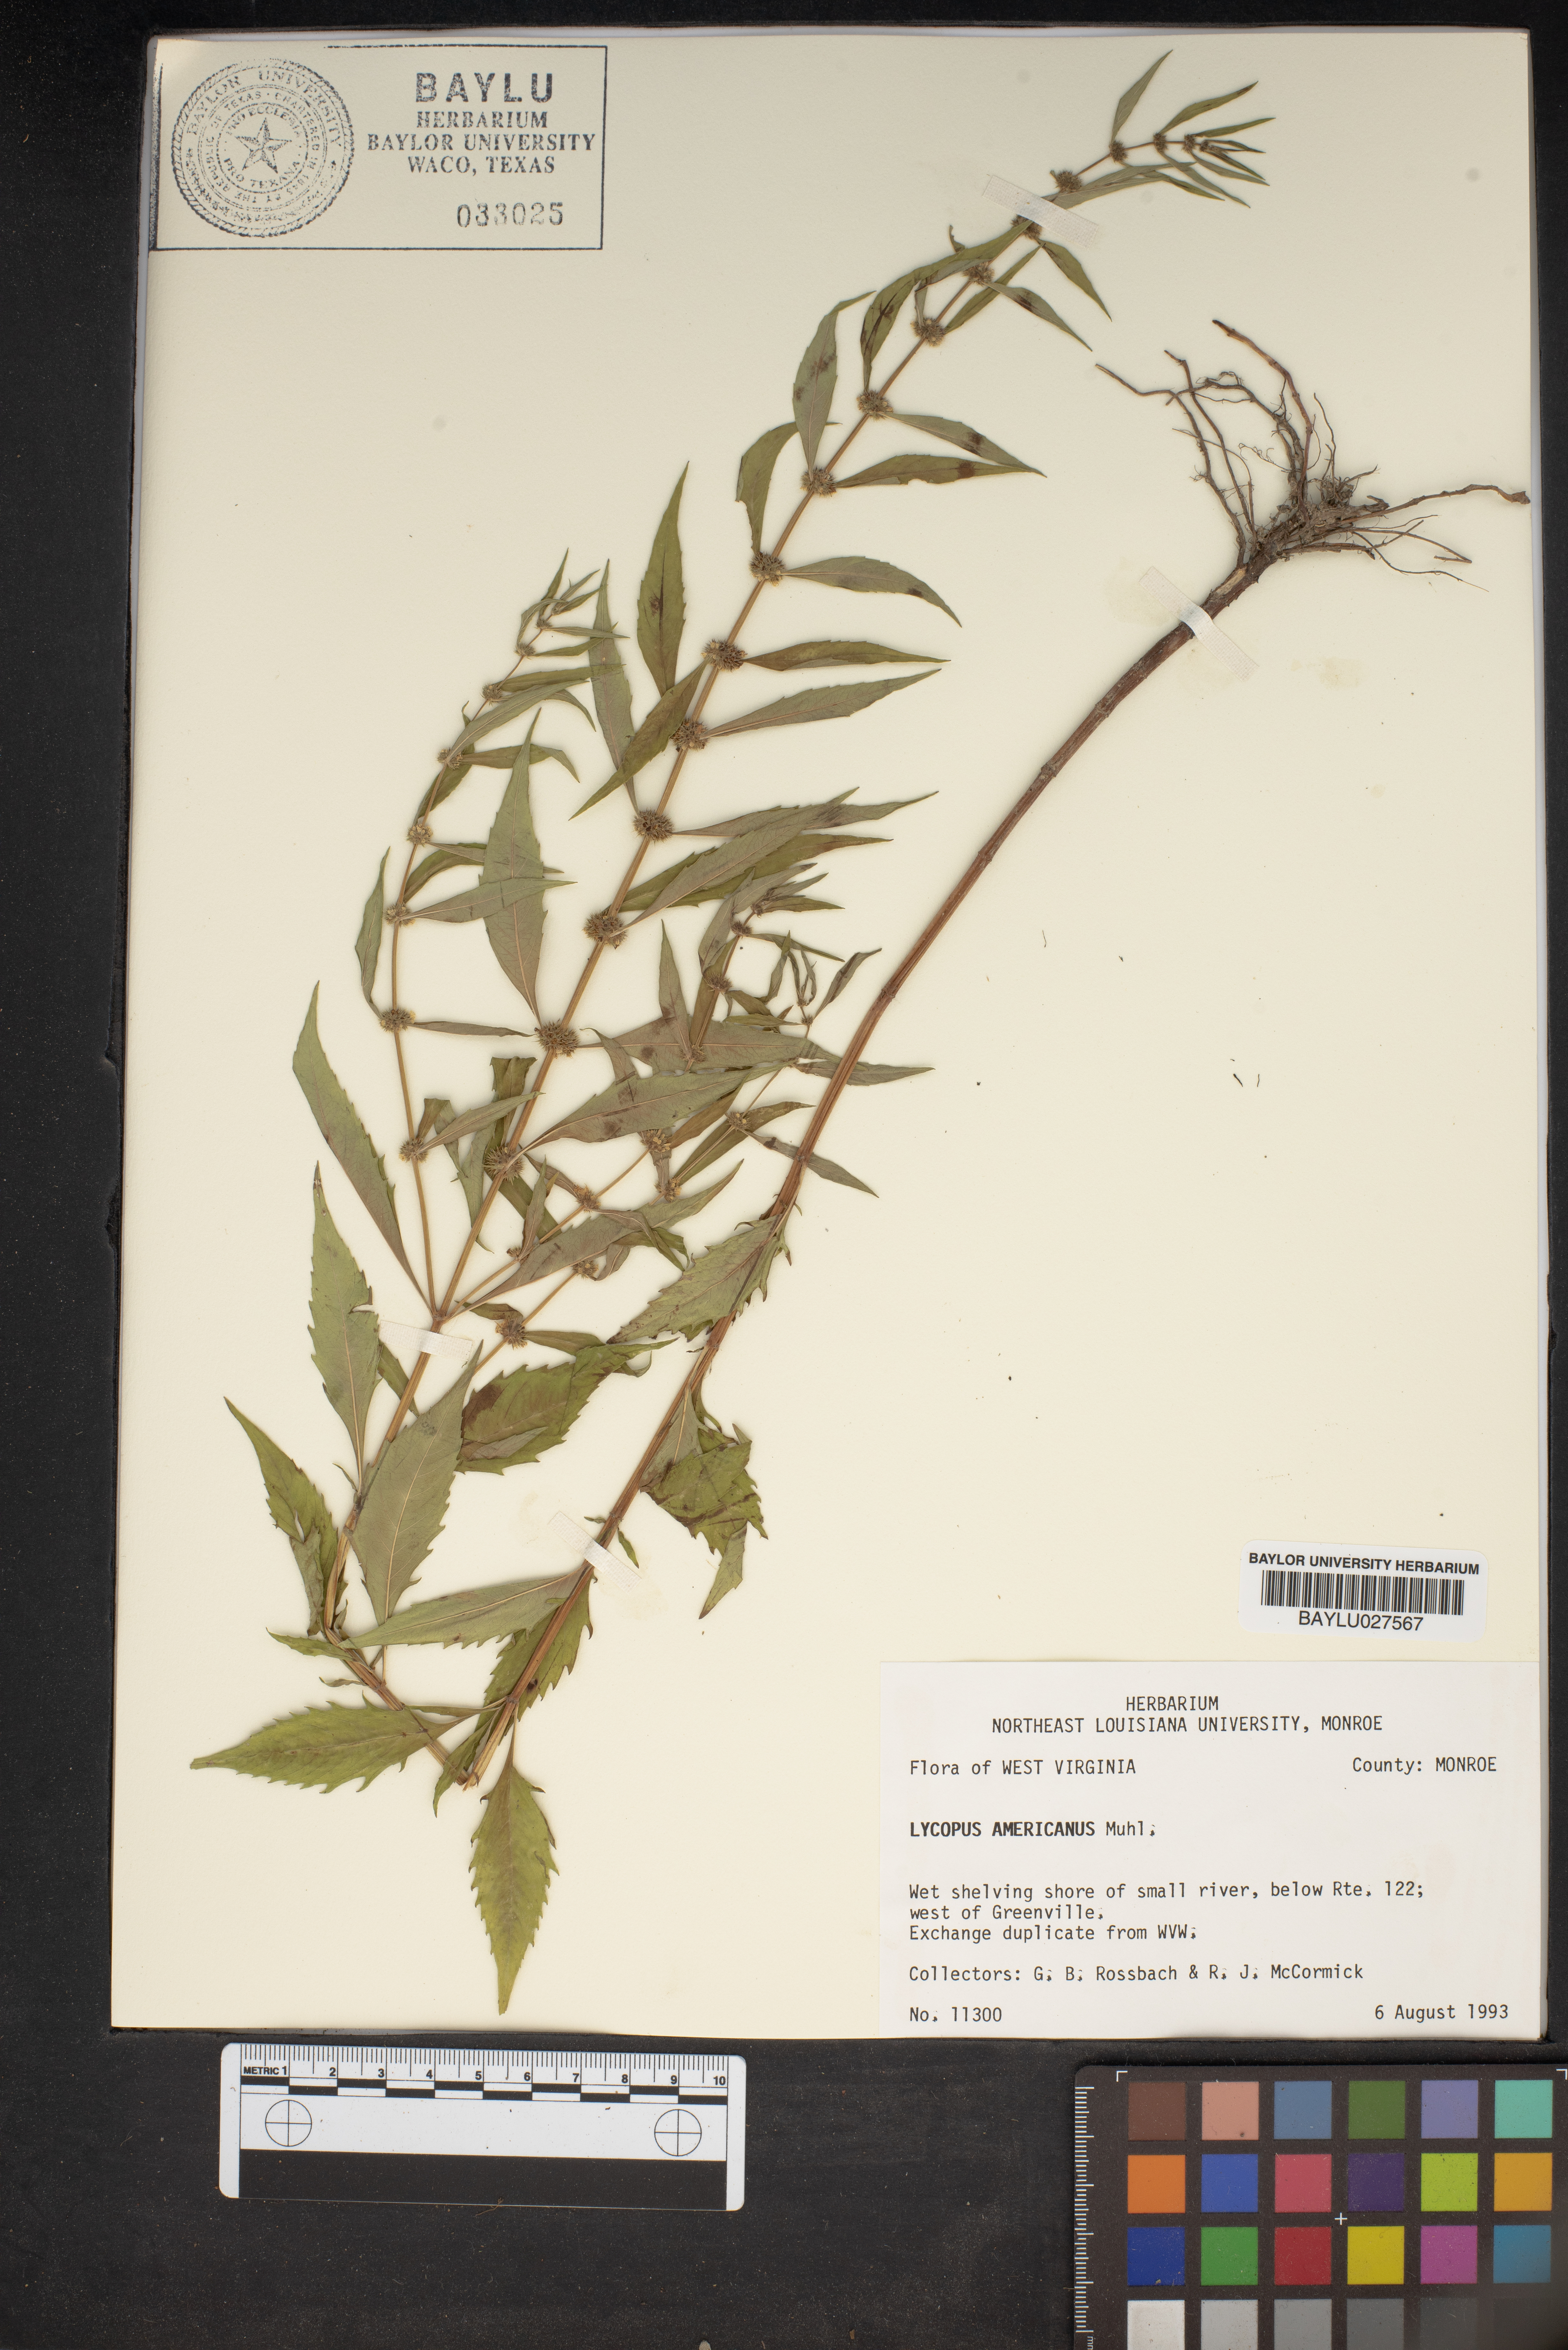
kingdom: Plantae
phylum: Tracheophyta
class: Magnoliopsida
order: Lamiales
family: Lamiaceae
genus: Lycopus
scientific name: Lycopus americanus
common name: American bugleweed
